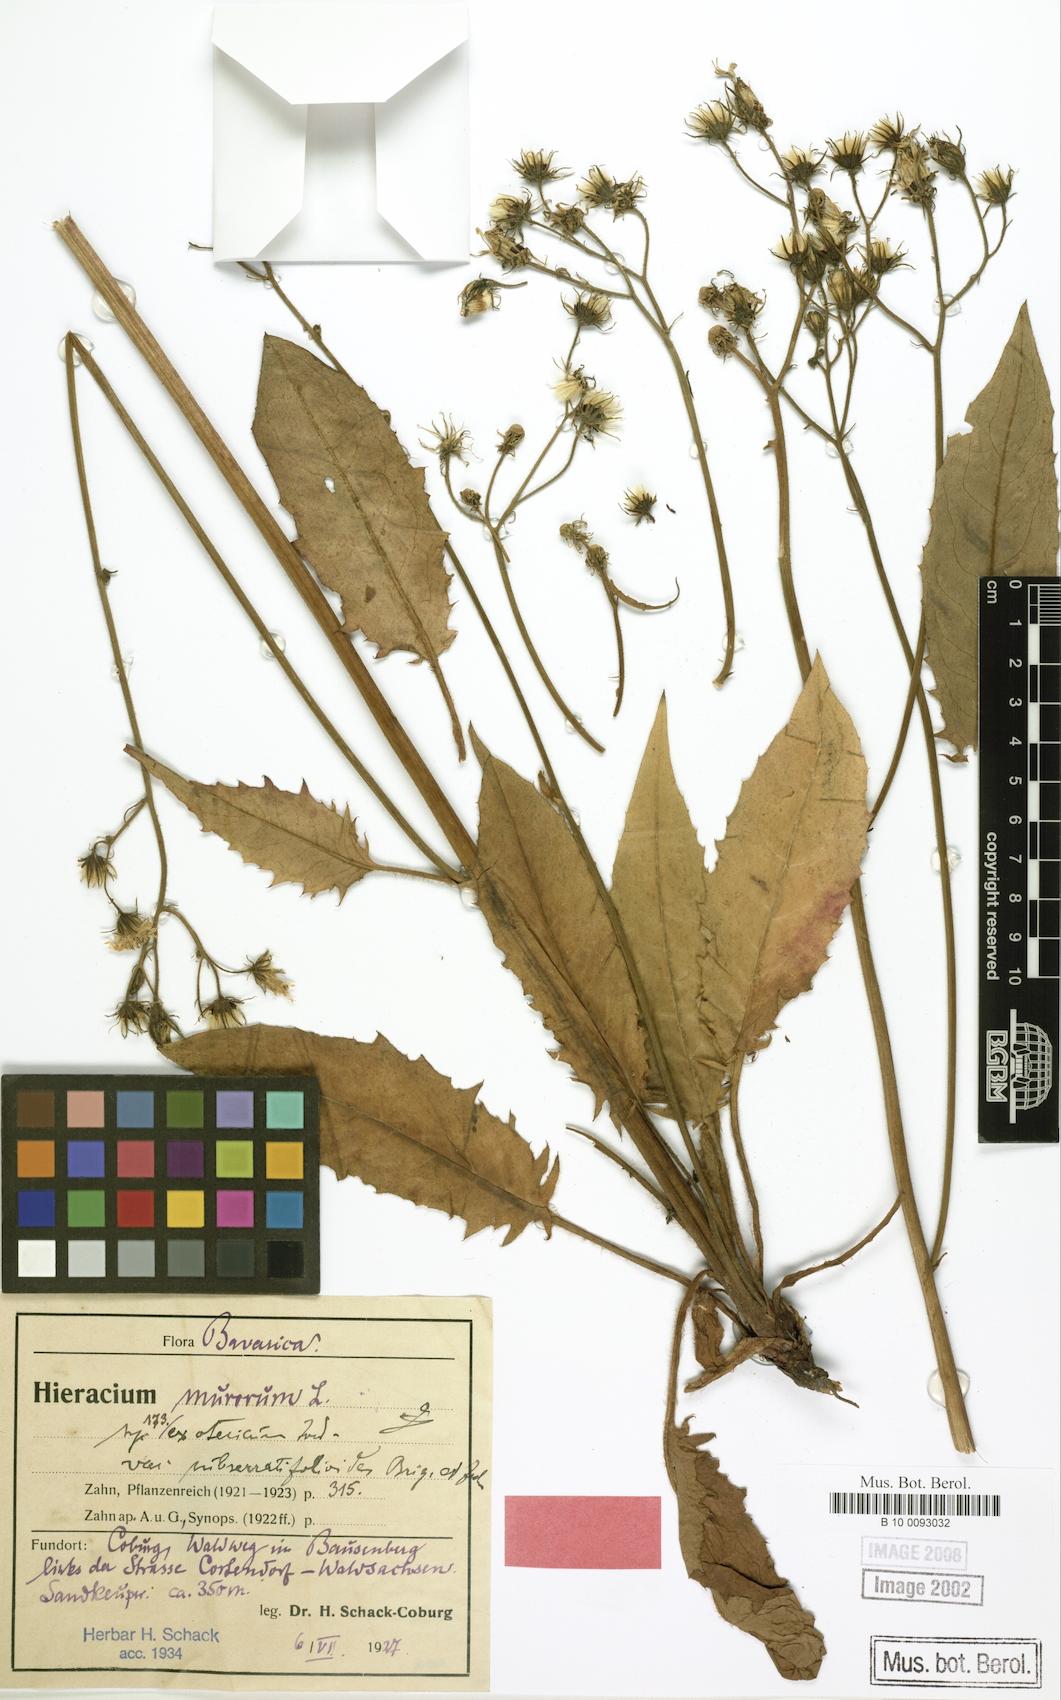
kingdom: Plantae
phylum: Tracheophyta
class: Magnoliopsida
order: Asterales
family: Asteraceae
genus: Hieracium
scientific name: Hieracium murorum
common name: Wall hawkweed
